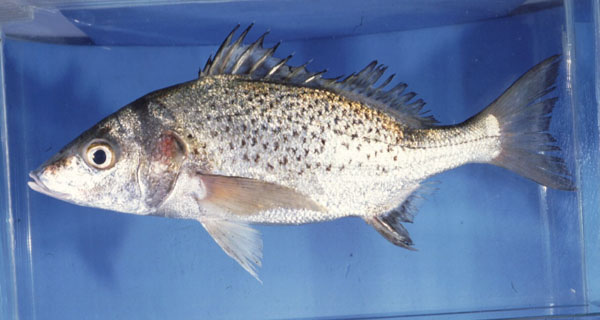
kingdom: Animalia
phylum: Chordata
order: Perciformes
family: Haemulidae
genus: Pomadasys
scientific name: Pomadasys commersonnii
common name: Smallspotted grunter
